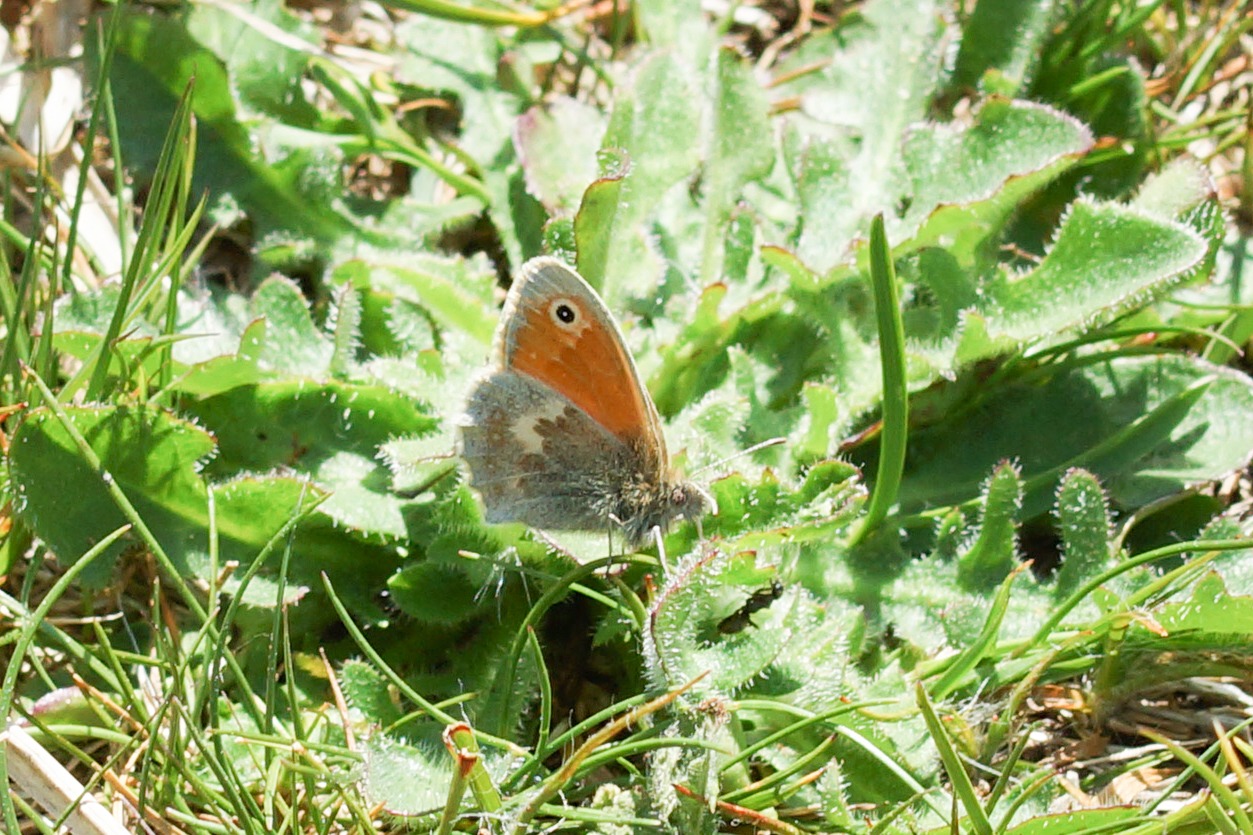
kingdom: Animalia
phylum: Arthropoda
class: Insecta
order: Lepidoptera
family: Nymphalidae
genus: Coenonympha
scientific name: Coenonympha pamphilus
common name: Okkergul randøje
